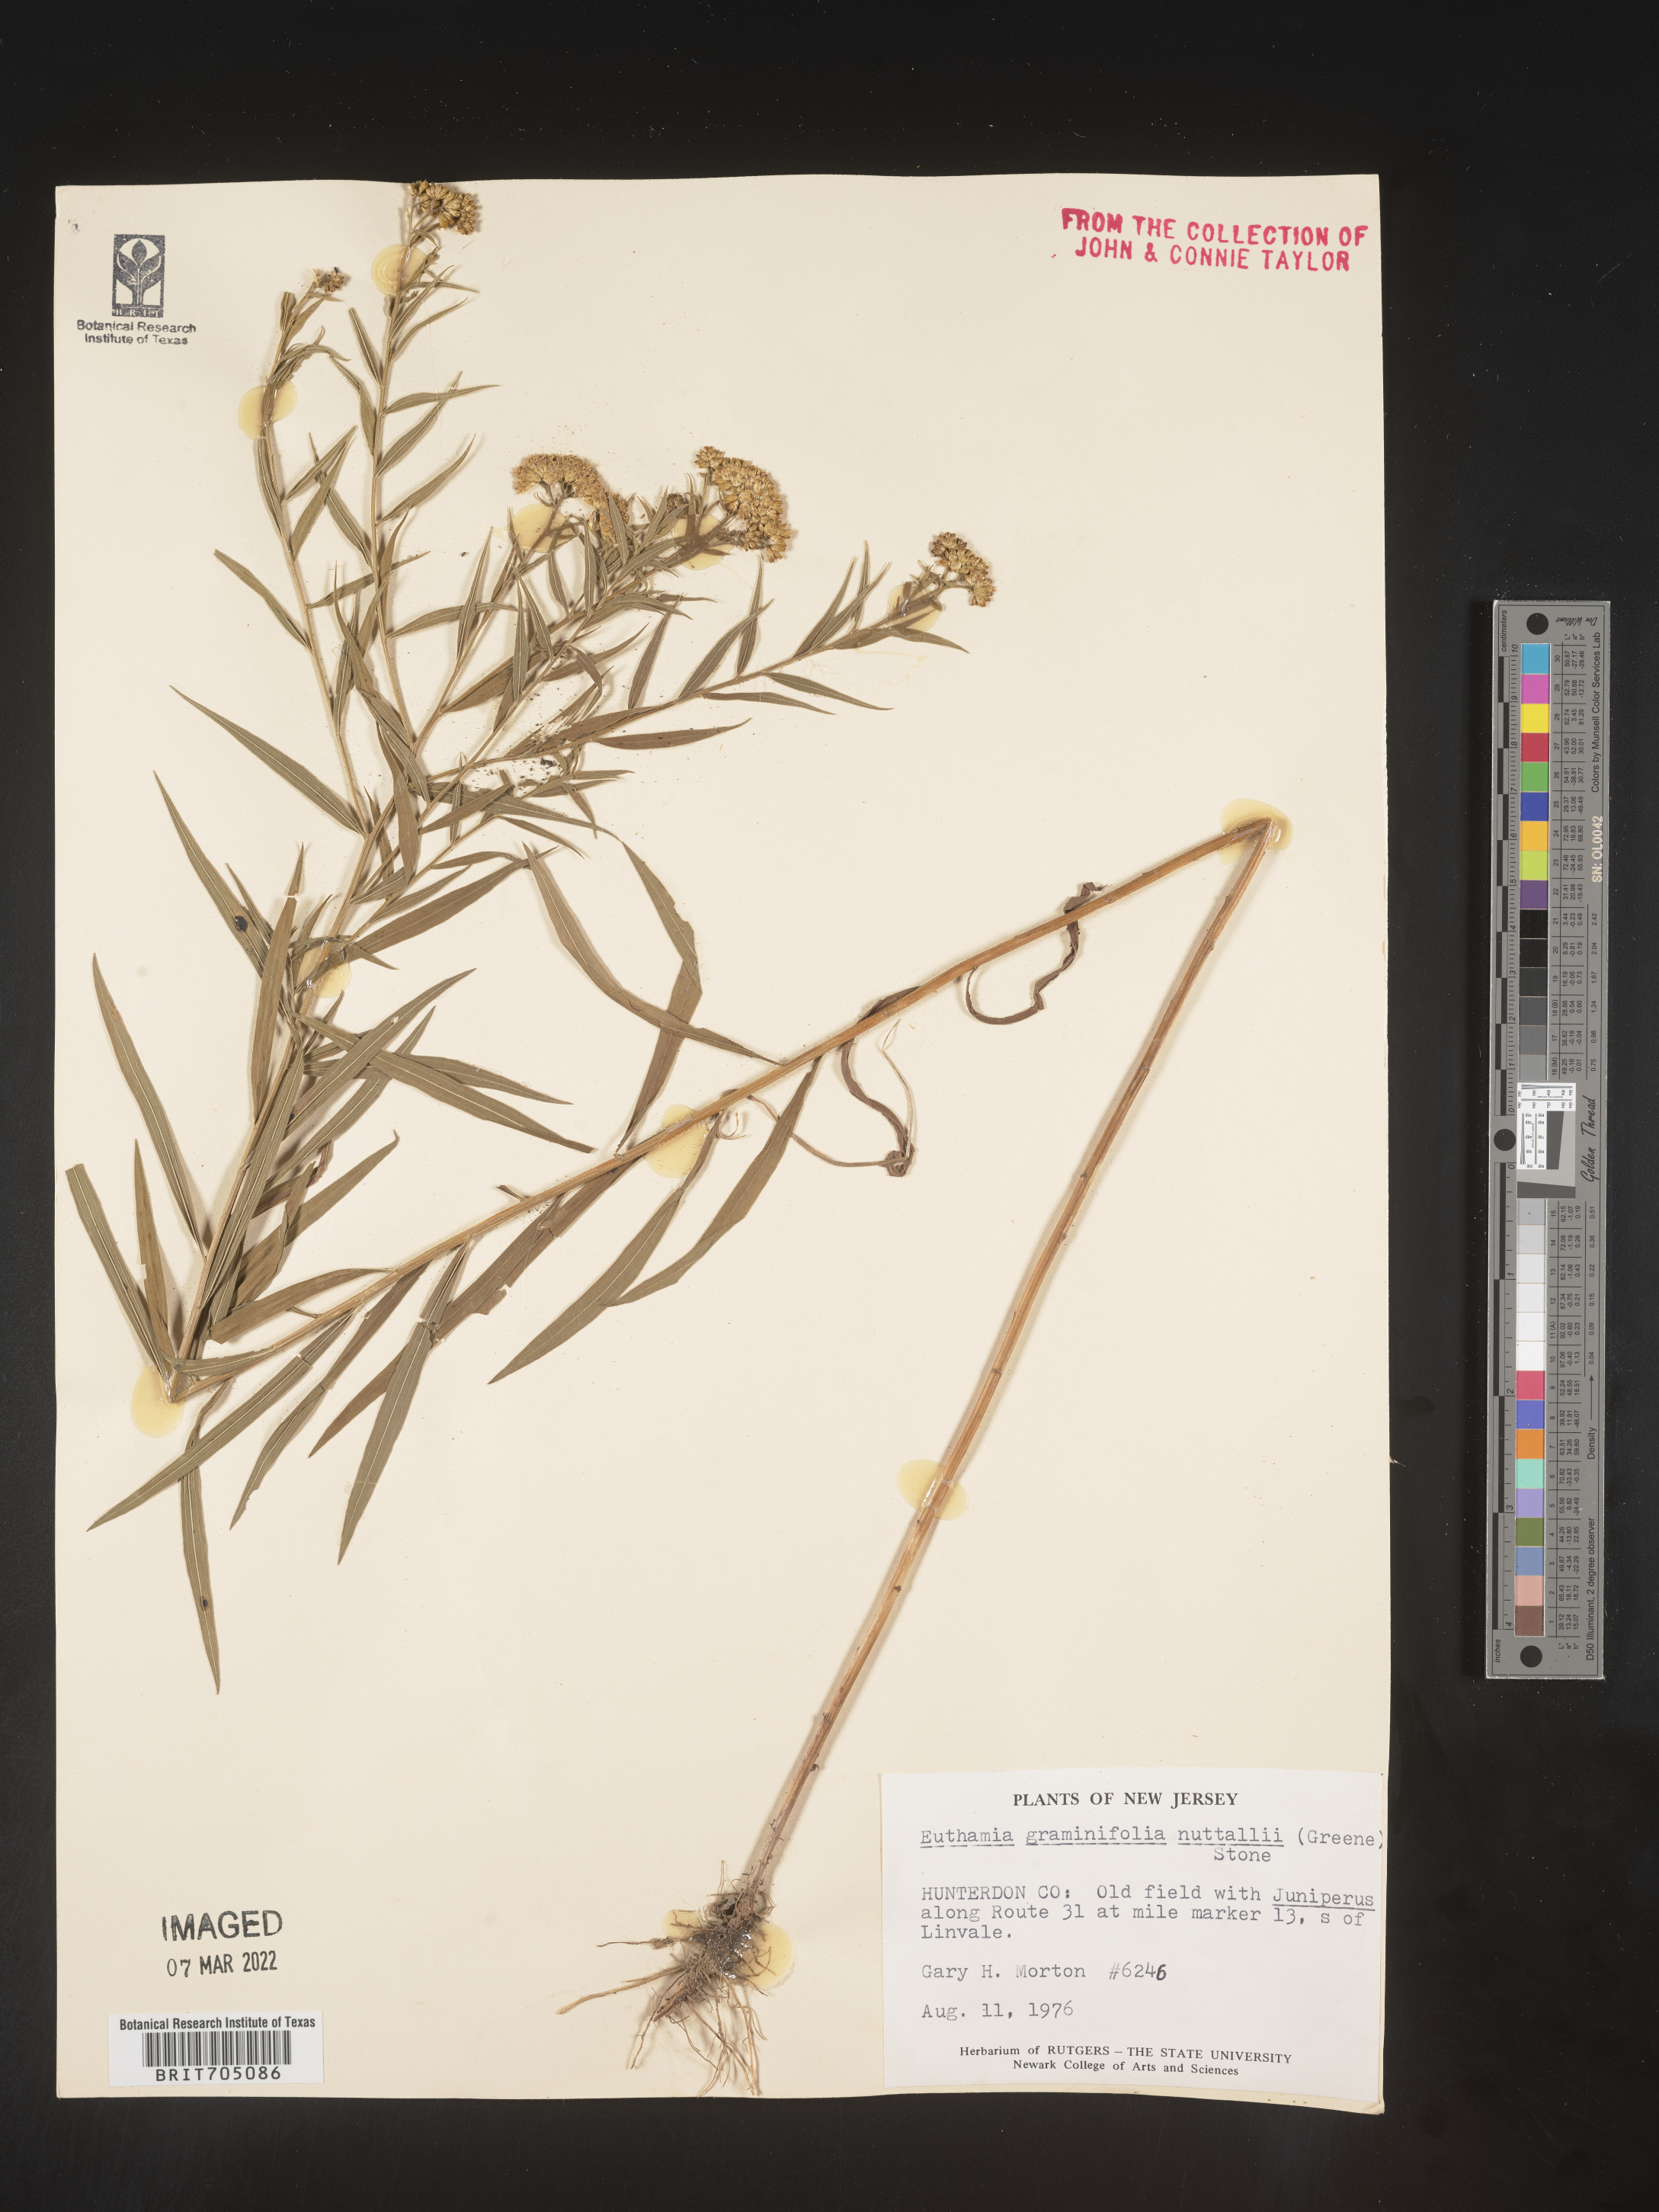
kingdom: Plantae
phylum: Tracheophyta
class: Magnoliopsida
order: Asterales
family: Asteraceae
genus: Euthamia
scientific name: Euthamia graminifolia
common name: Common goldentop
